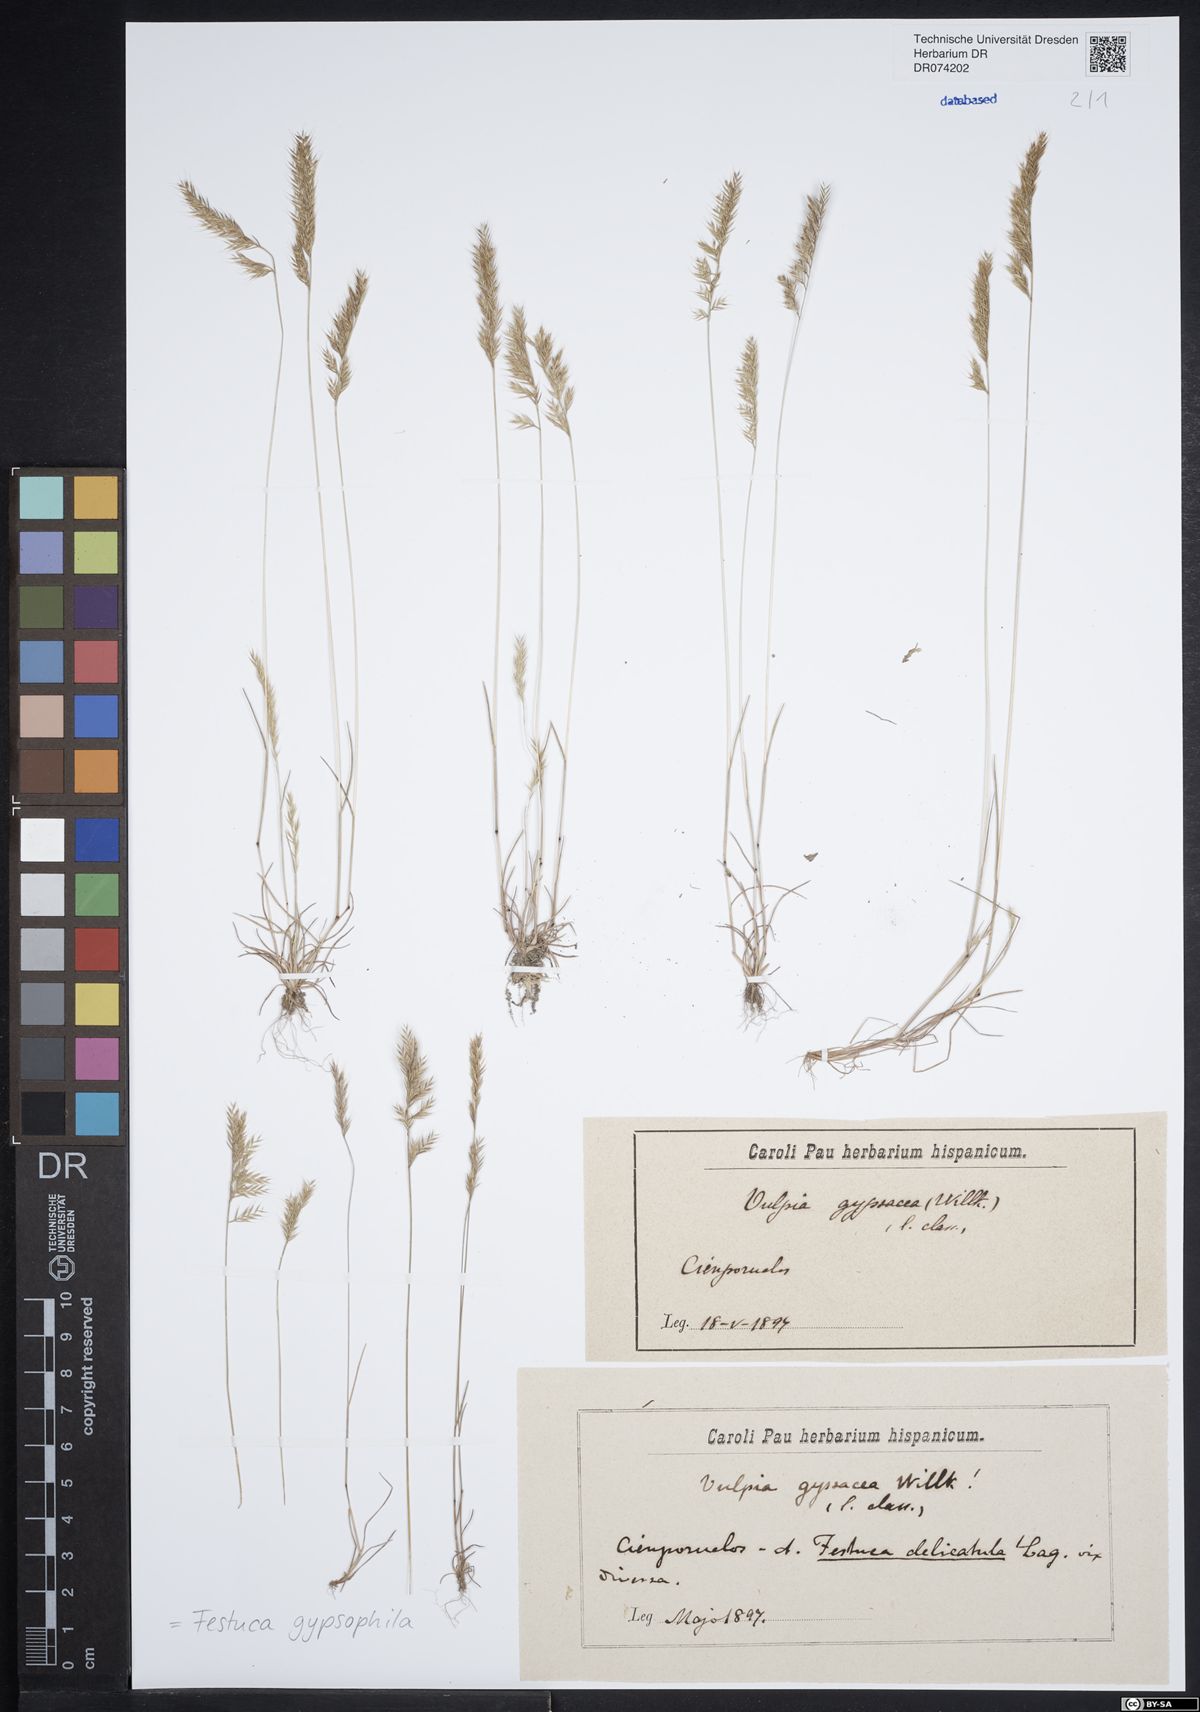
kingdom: Plantae
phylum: Tracheophyta
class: Liliopsida
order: Poales
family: Poaceae
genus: Festuca
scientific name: Festuca gypsophila
